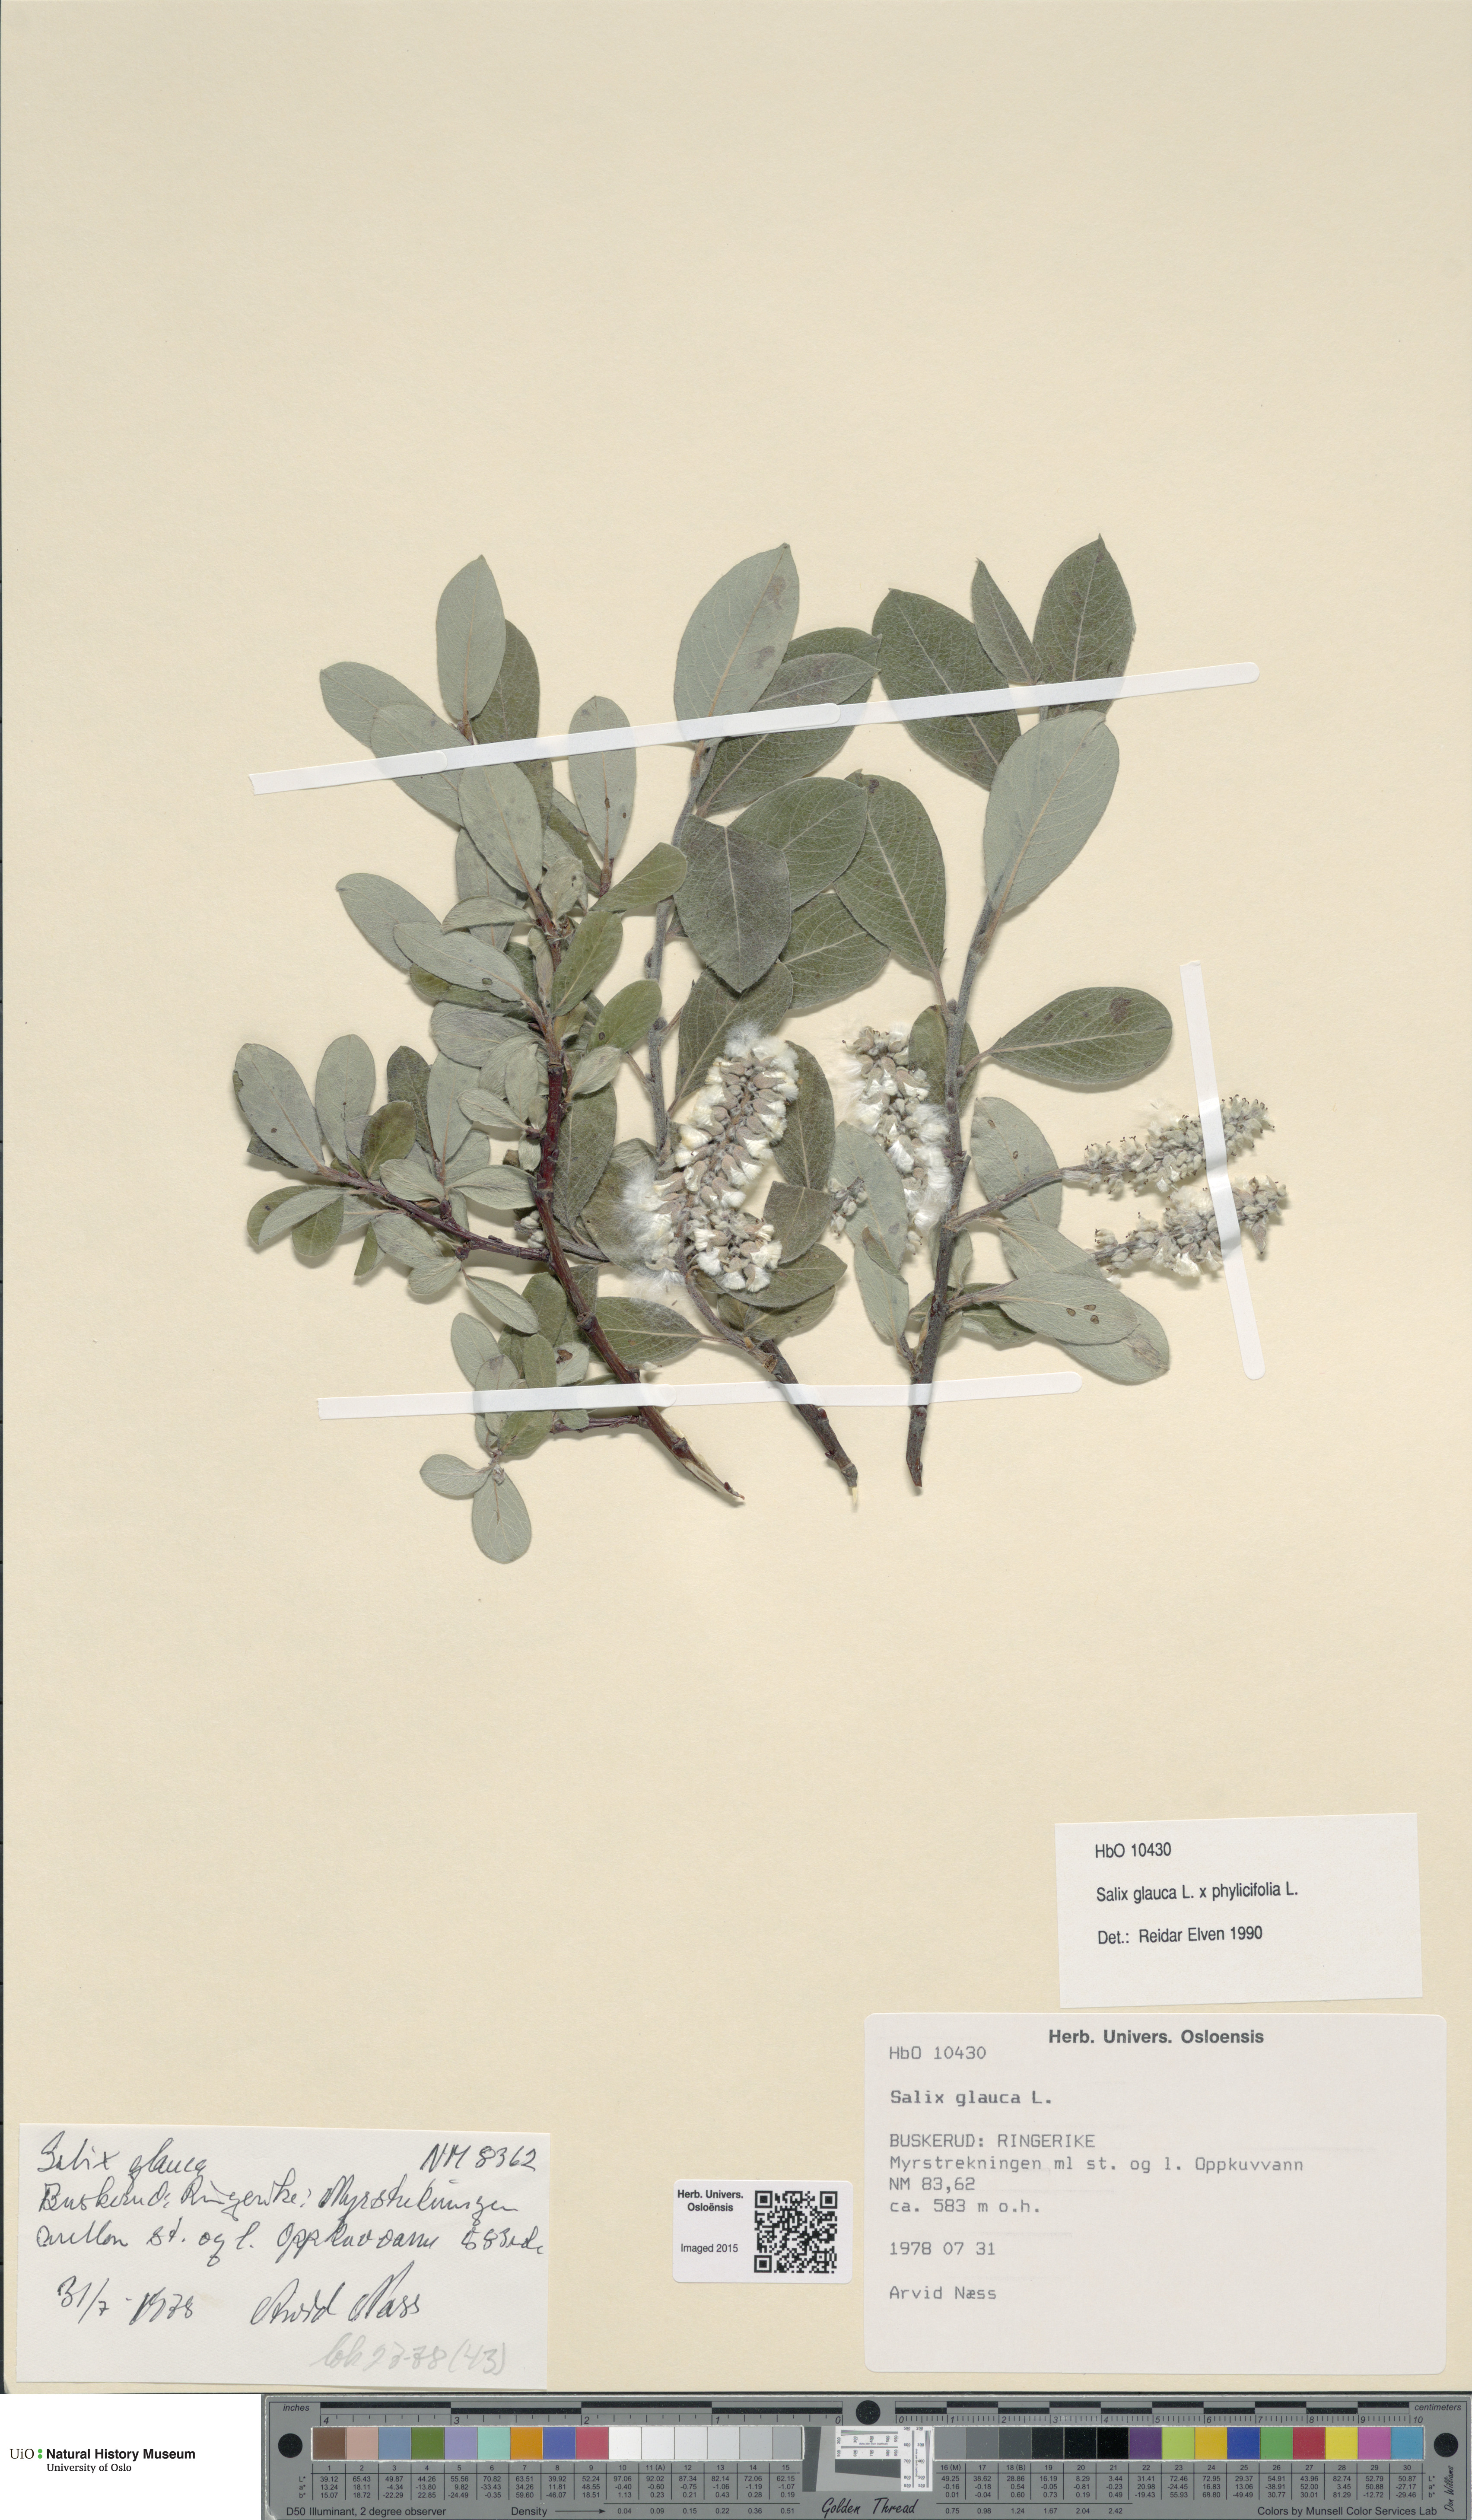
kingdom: Plantae
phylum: Tracheophyta
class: Magnoliopsida
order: Malpighiales
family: Salicaceae
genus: Salix
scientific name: Salix
